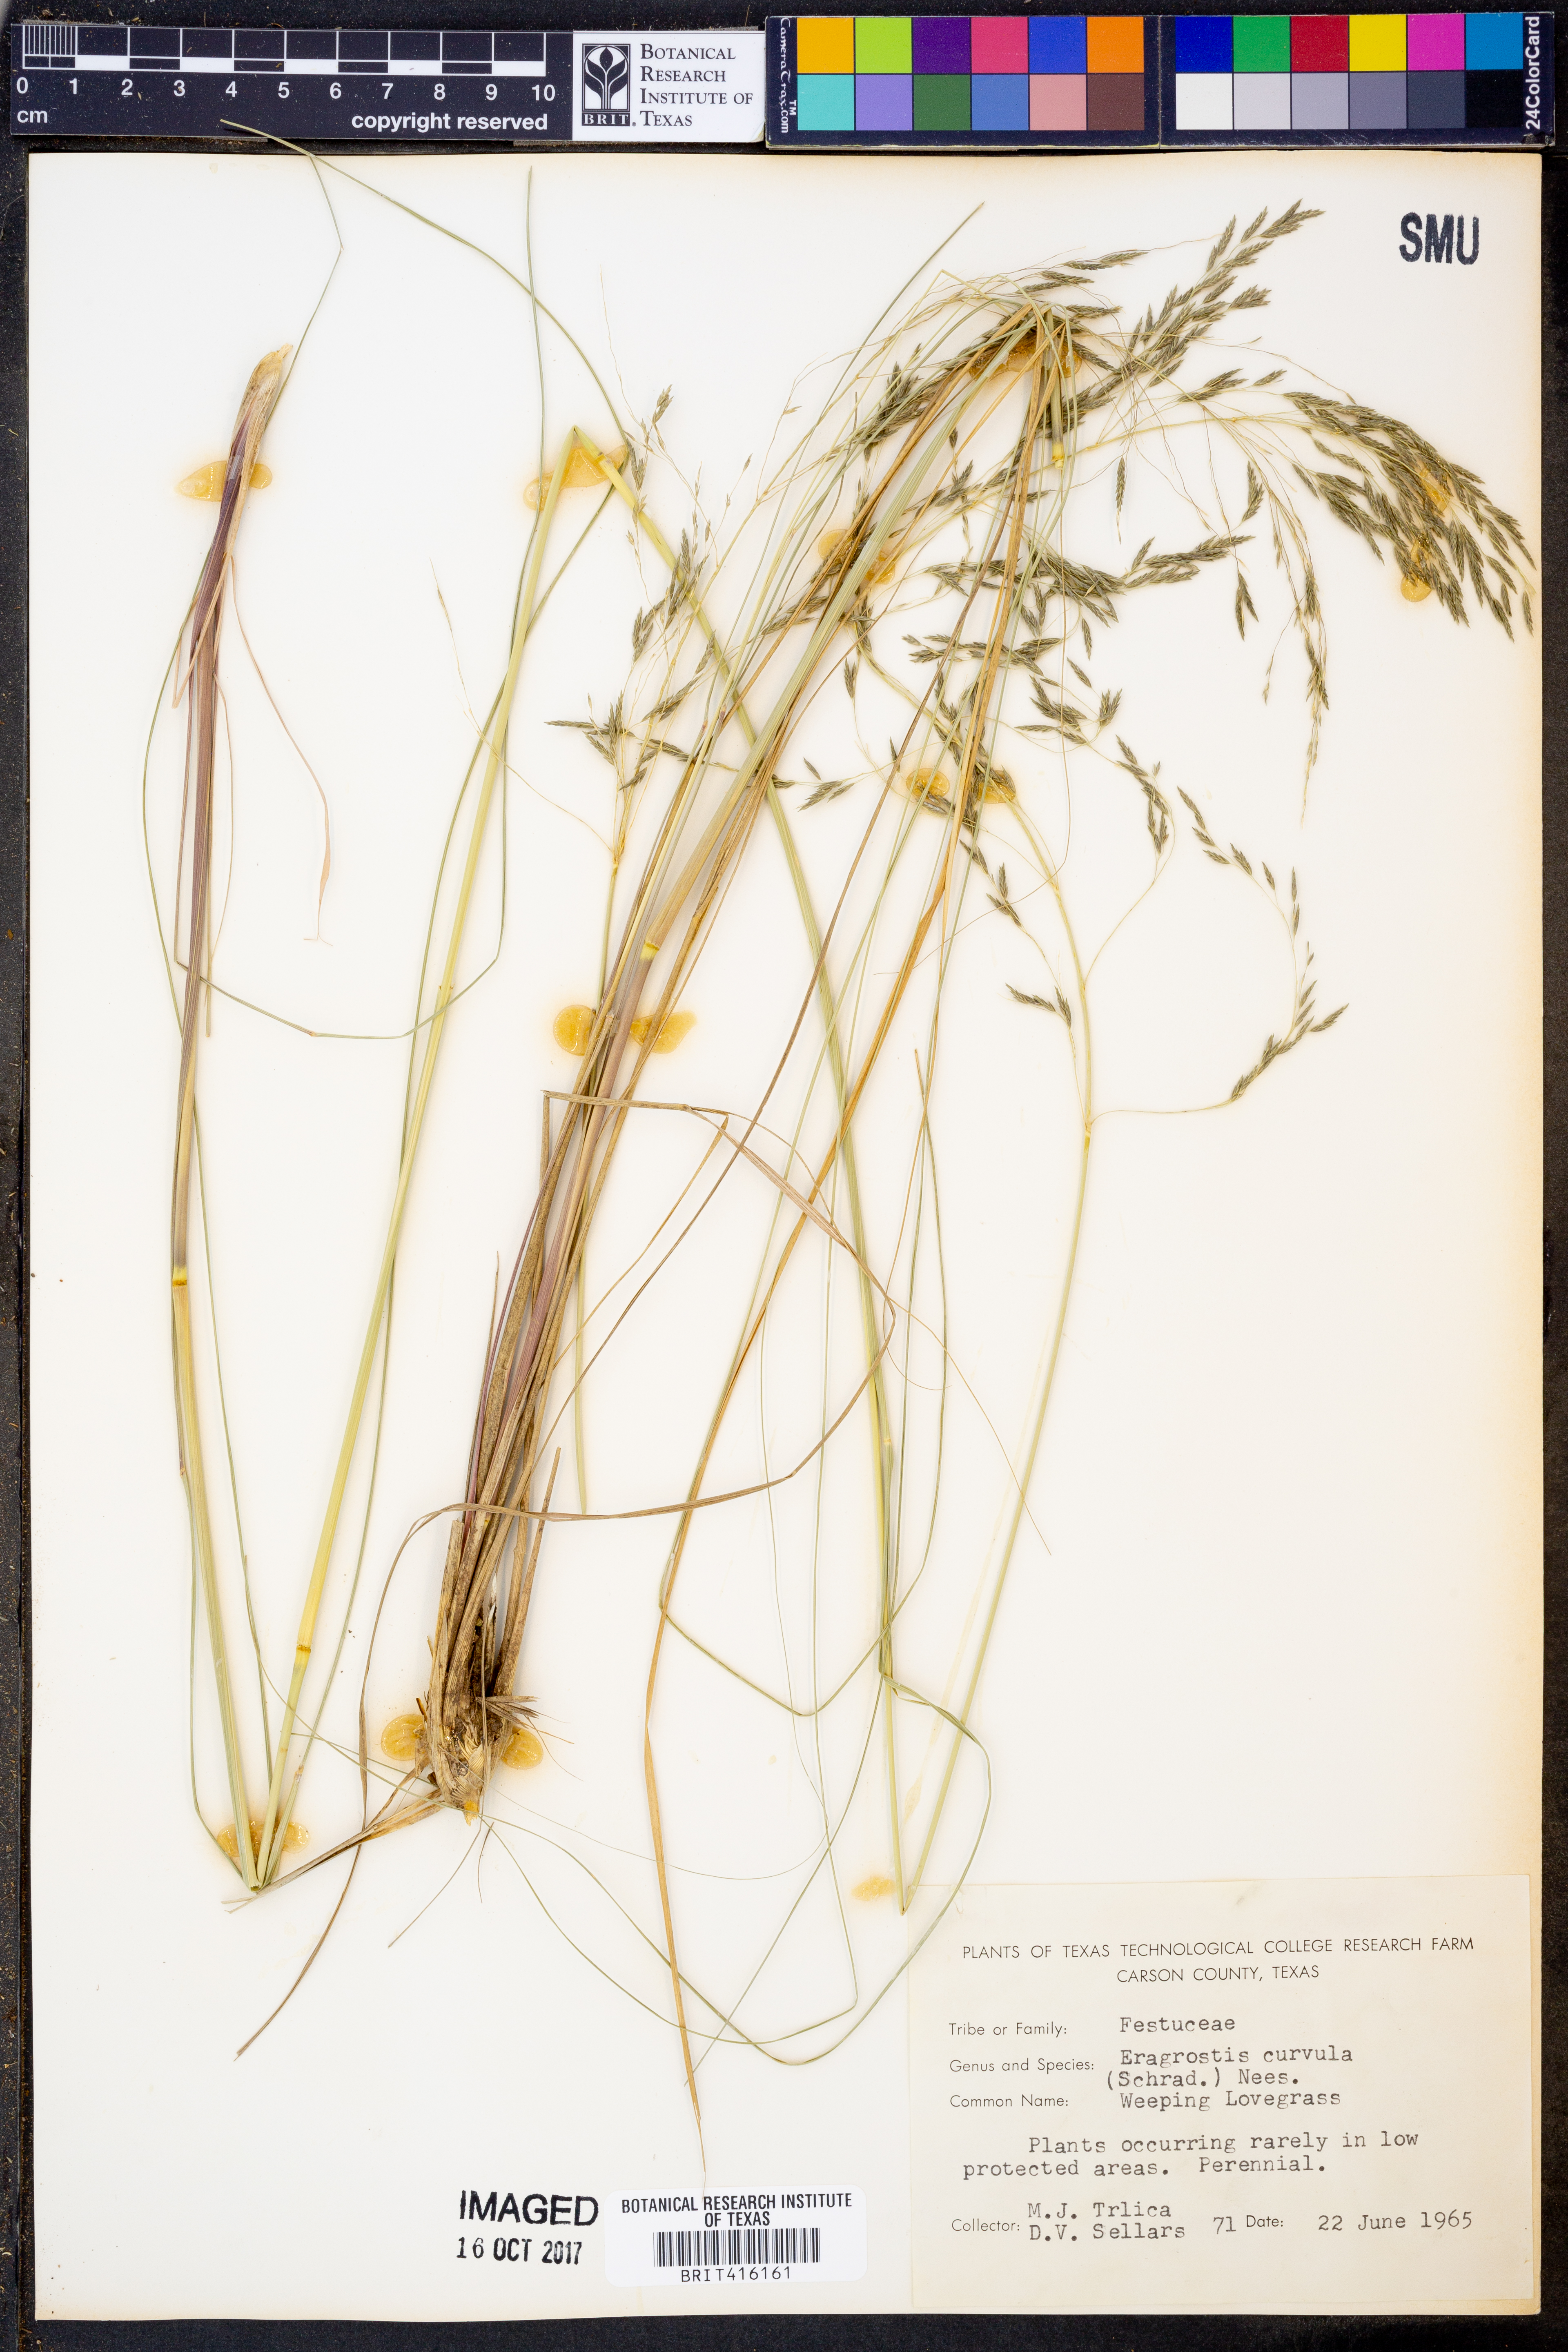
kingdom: Plantae
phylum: Tracheophyta
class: Liliopsida
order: Poales
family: Poaceae
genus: Eragrostis
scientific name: Eragrostis curvula
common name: African love-grass
